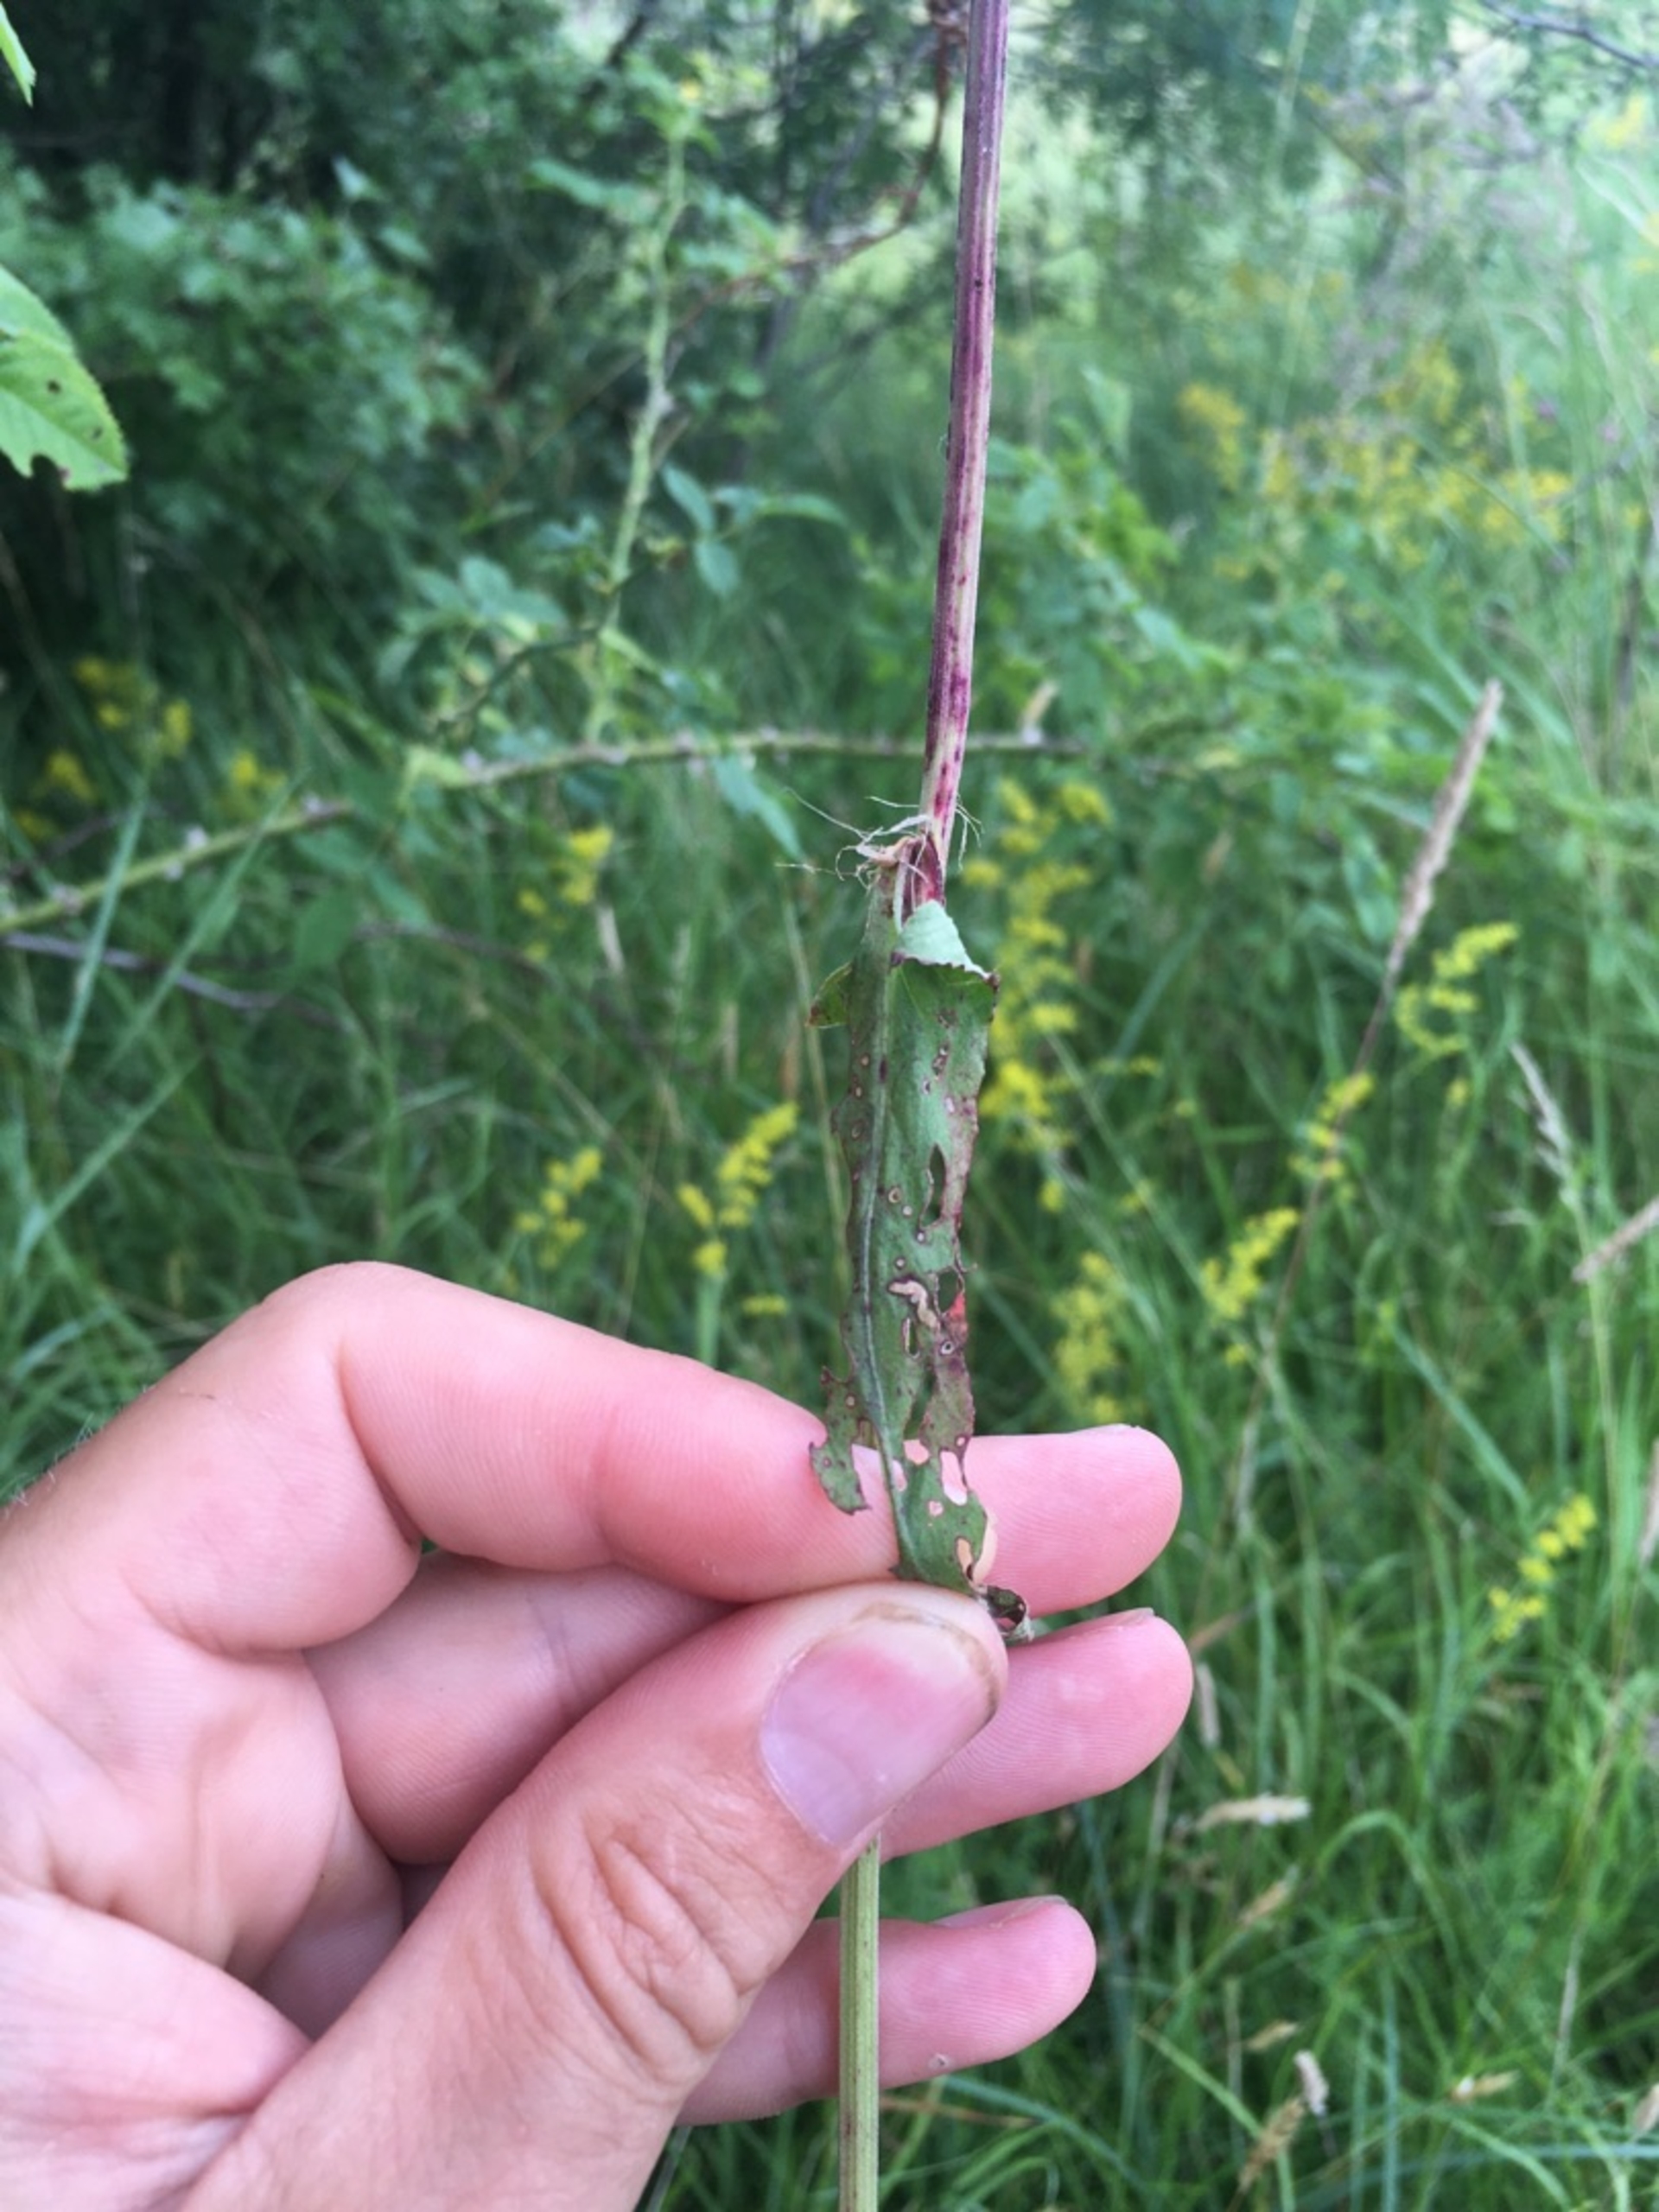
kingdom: Plantae
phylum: Tracheophyta
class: Magnoliopsida
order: Caryophyllales
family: Polygonaceae
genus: Rumex
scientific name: Rumex acetosa
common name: Almindelig syre
